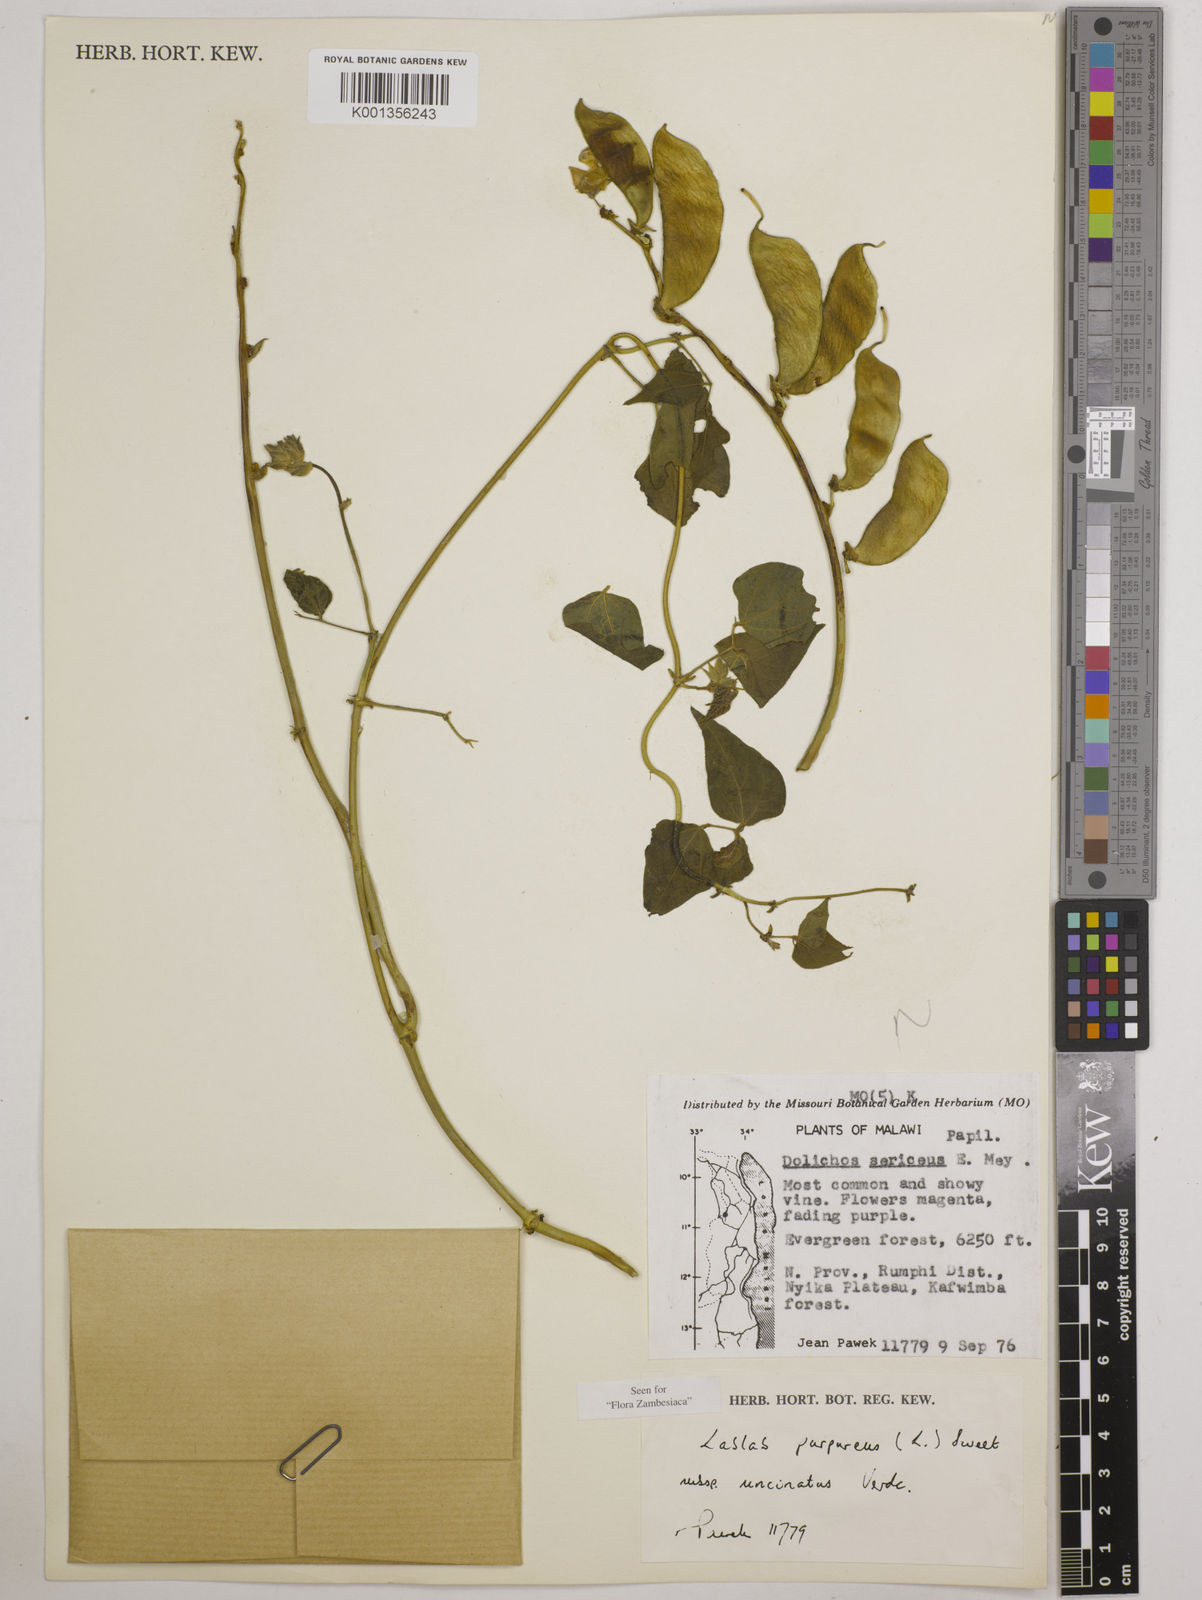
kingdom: Plantae
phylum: Tracheophyta
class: Magnoliopsida
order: Fabales
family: Fabaceae
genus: Lablab
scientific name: Lablab purpureus
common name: Lablab-bean
